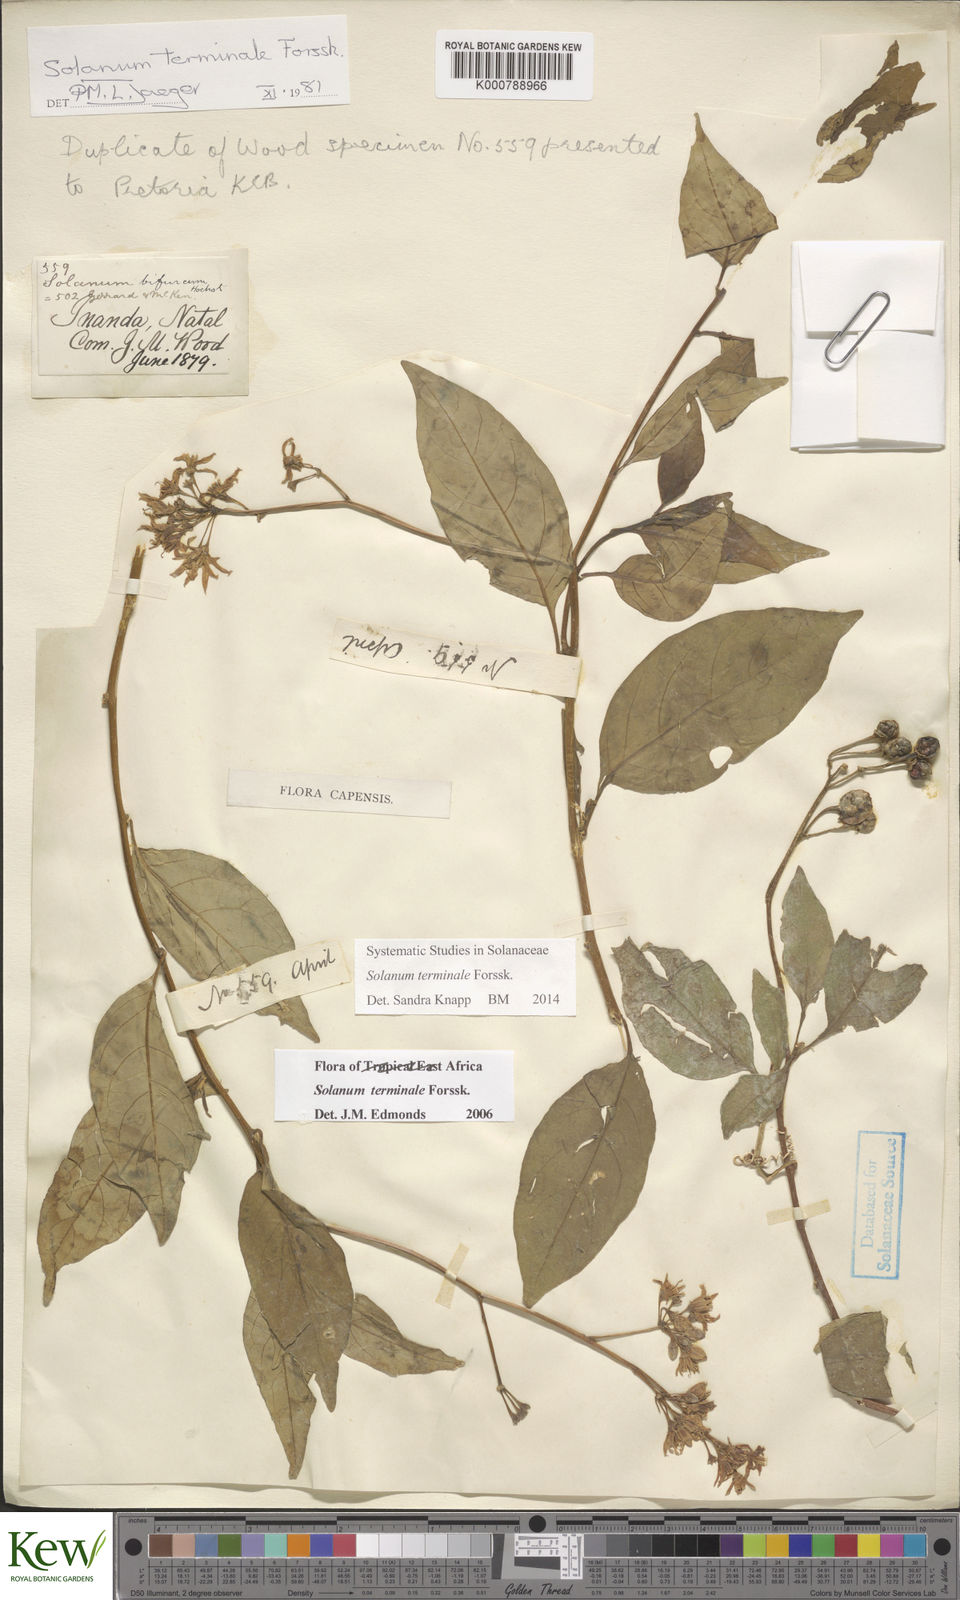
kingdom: Plantae
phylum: Tracheophyta
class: Magnoliopsida
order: Solanales
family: Solanaceae
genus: Solanum
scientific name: Solanum terminale
